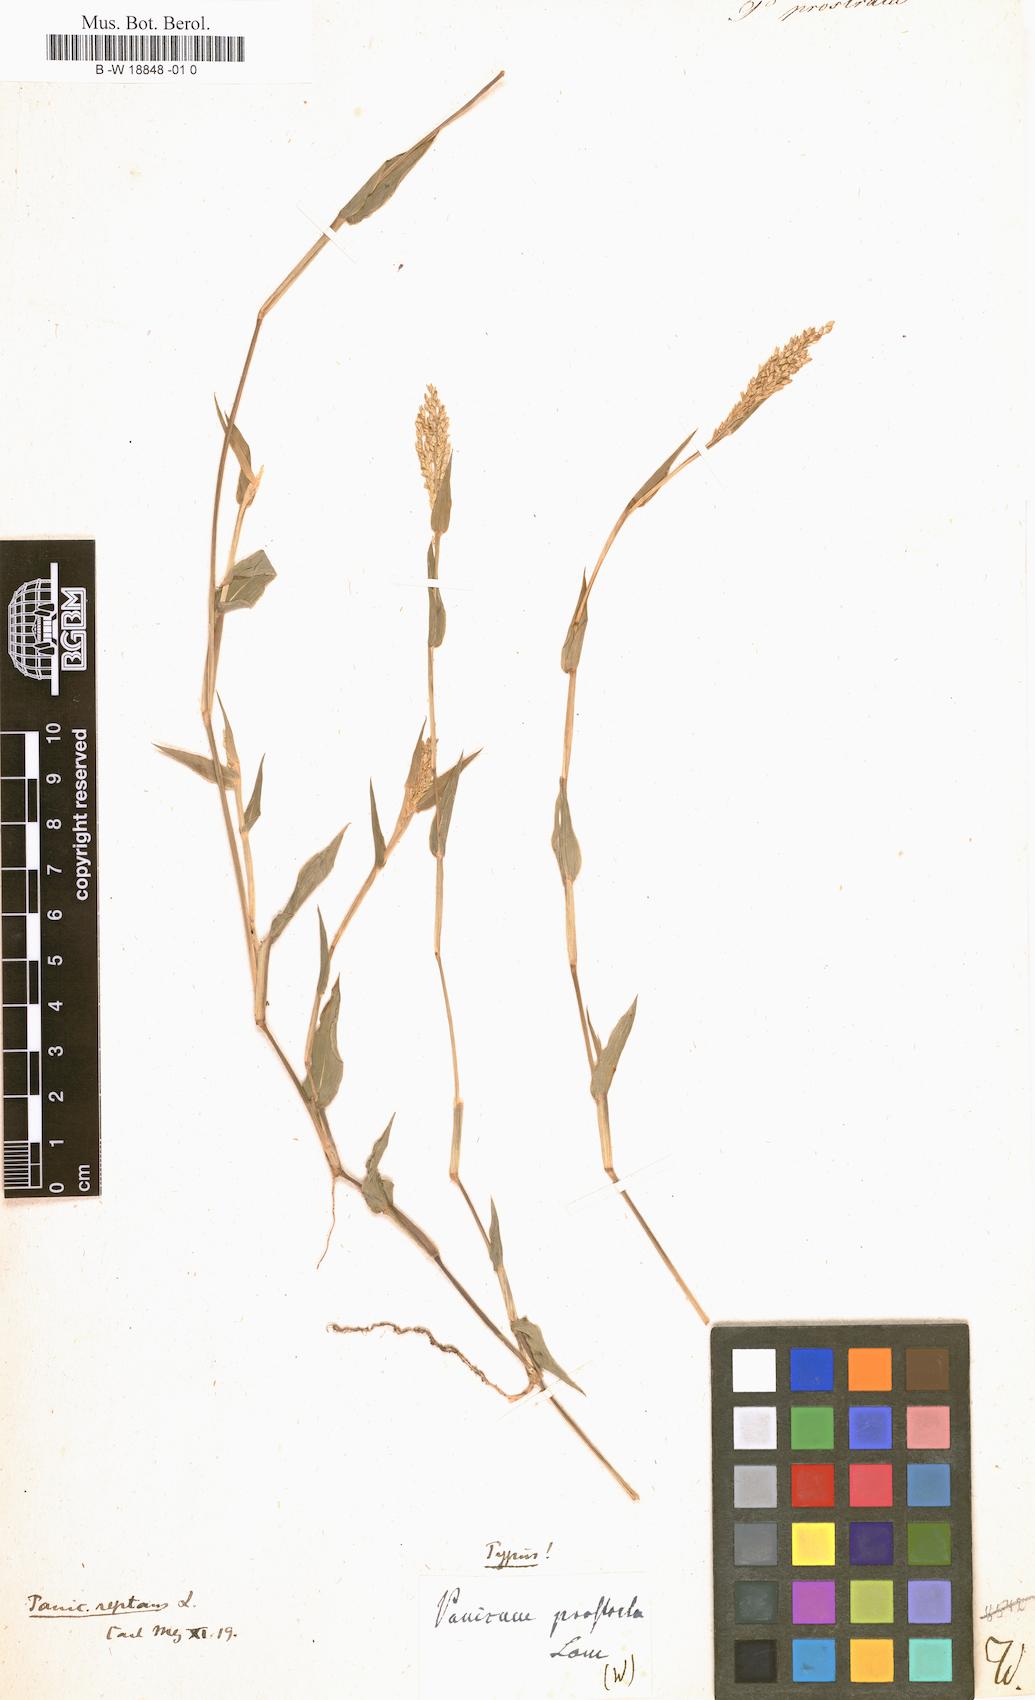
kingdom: Plantae
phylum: Tracheophyta
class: Liliopsida
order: Poales
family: Poaceae
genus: Urochloa
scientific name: Urochloa reptans
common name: Sprawling signalgrass
